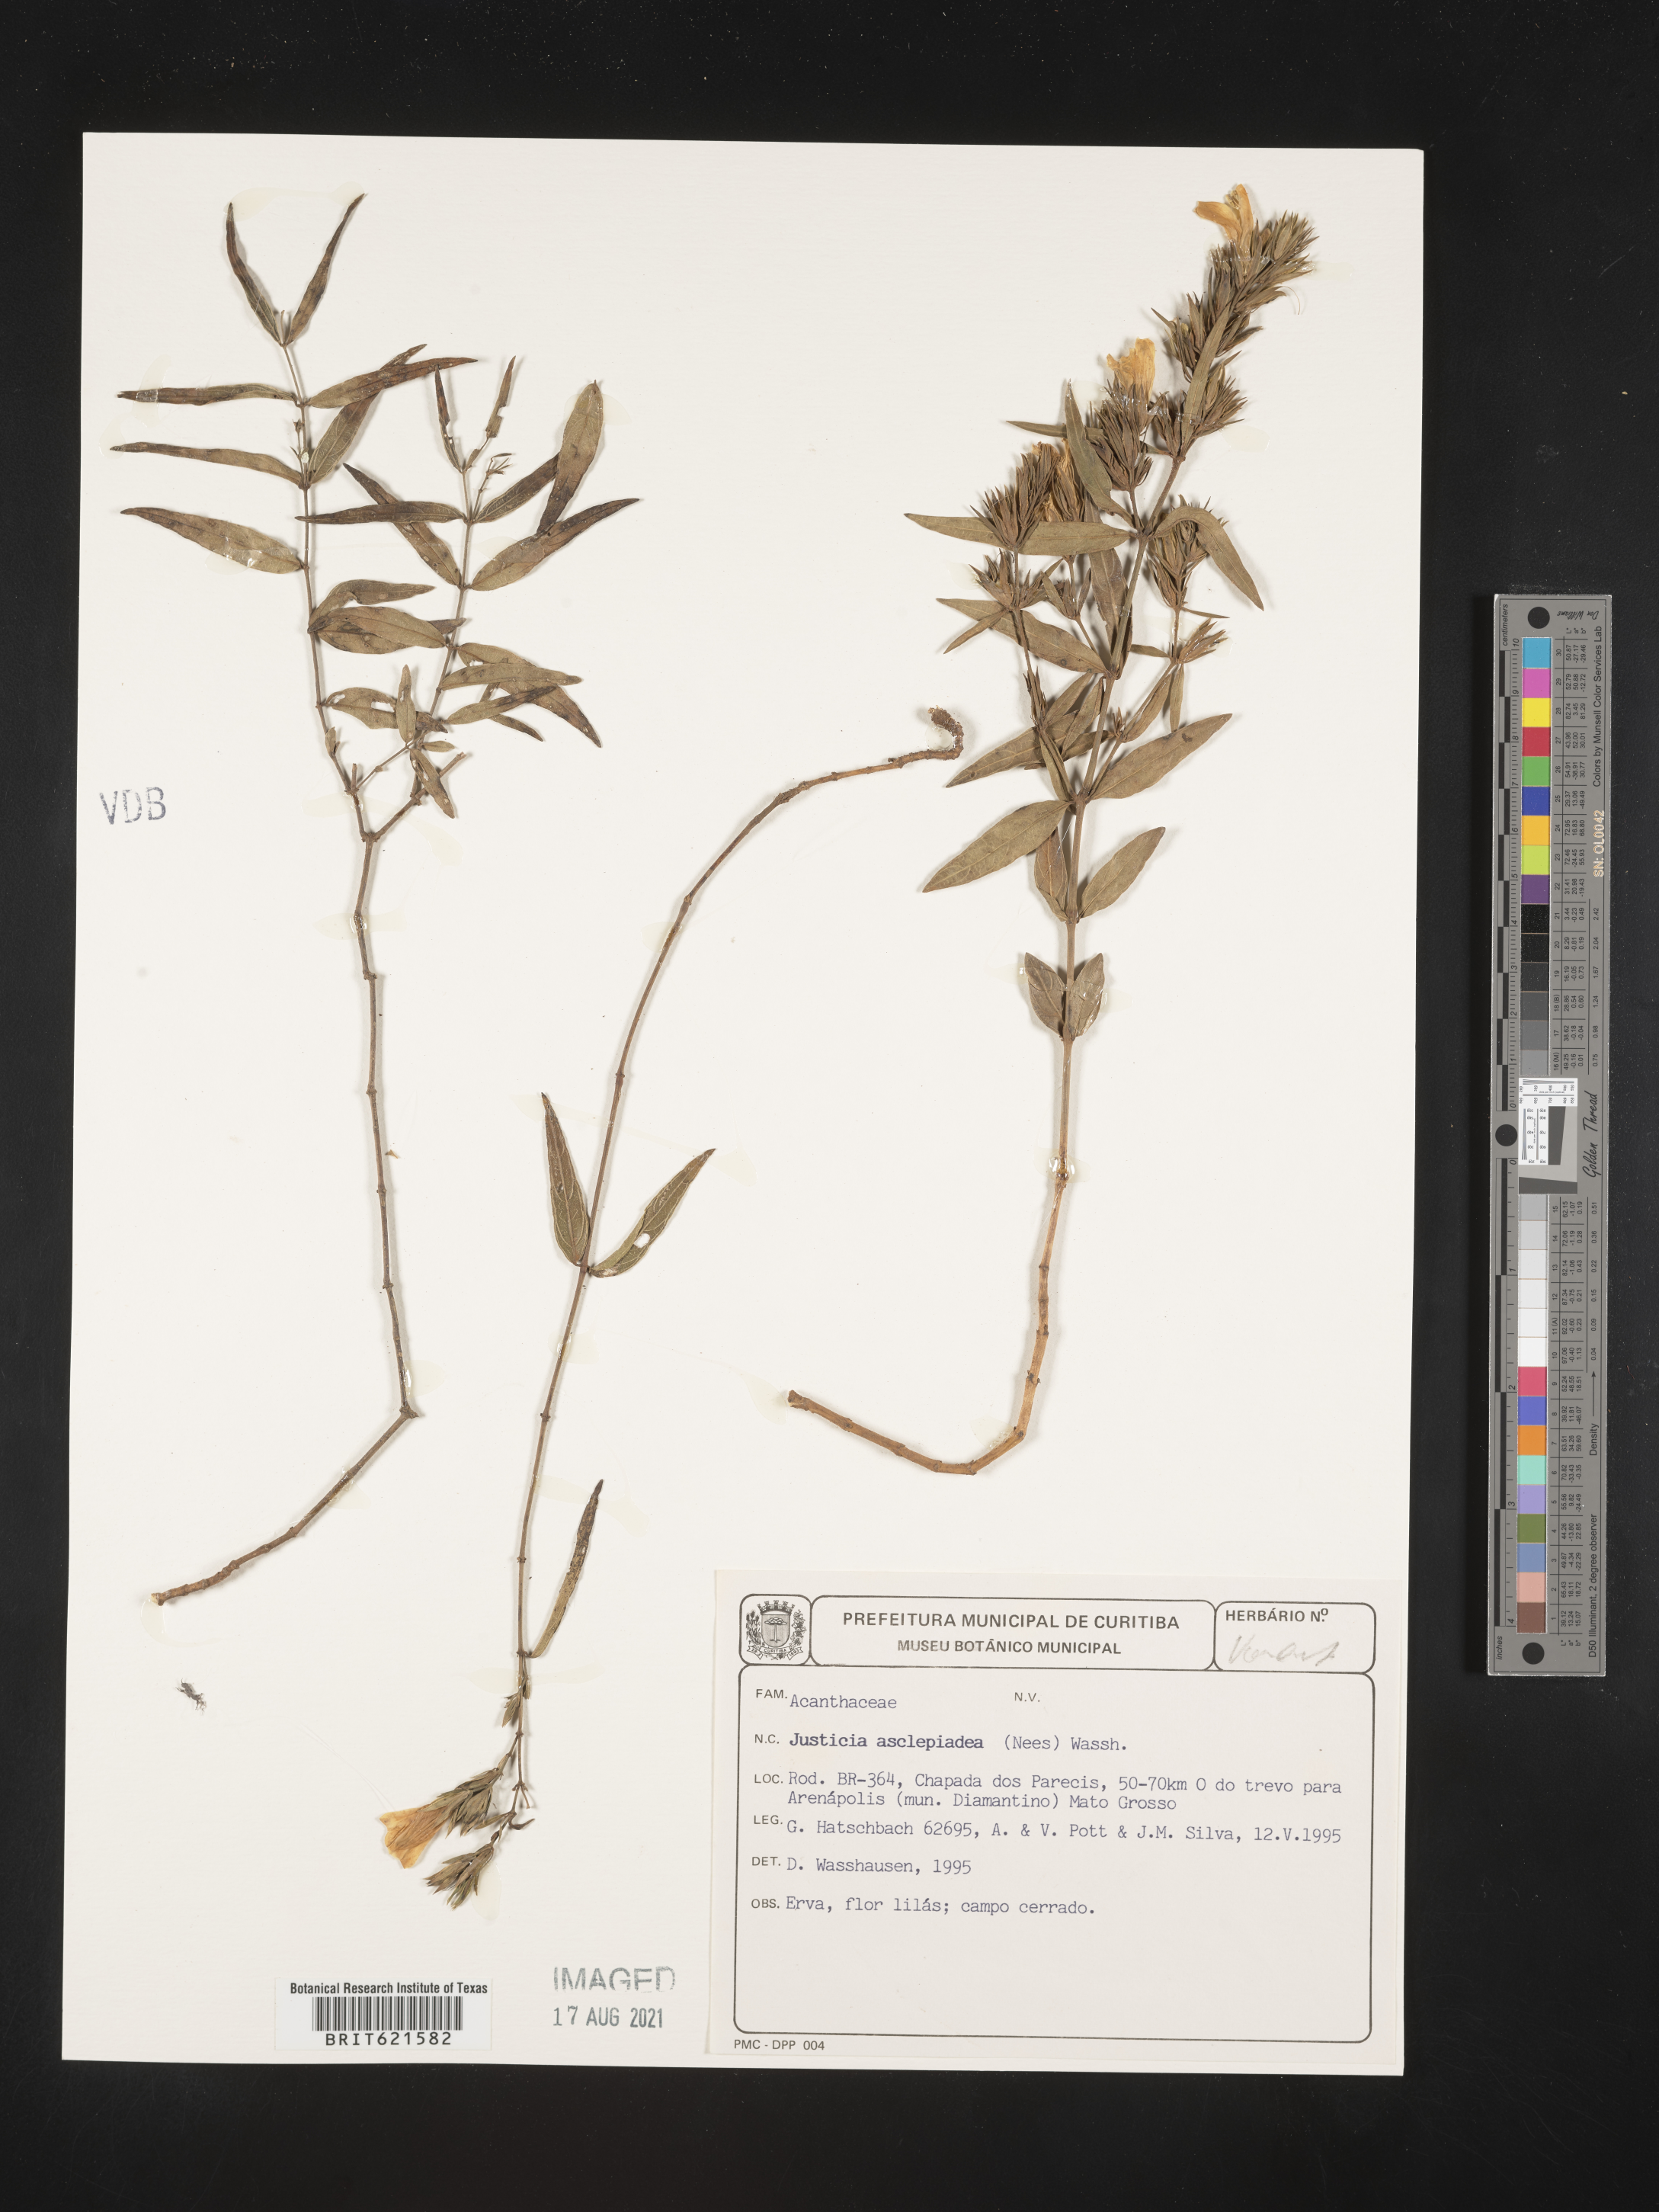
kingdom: Plantae
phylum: Tracheophyta
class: Magnoliopsida
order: Lamiales
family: Acanthaceae
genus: Justicia
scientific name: Justicia asclepiadea
